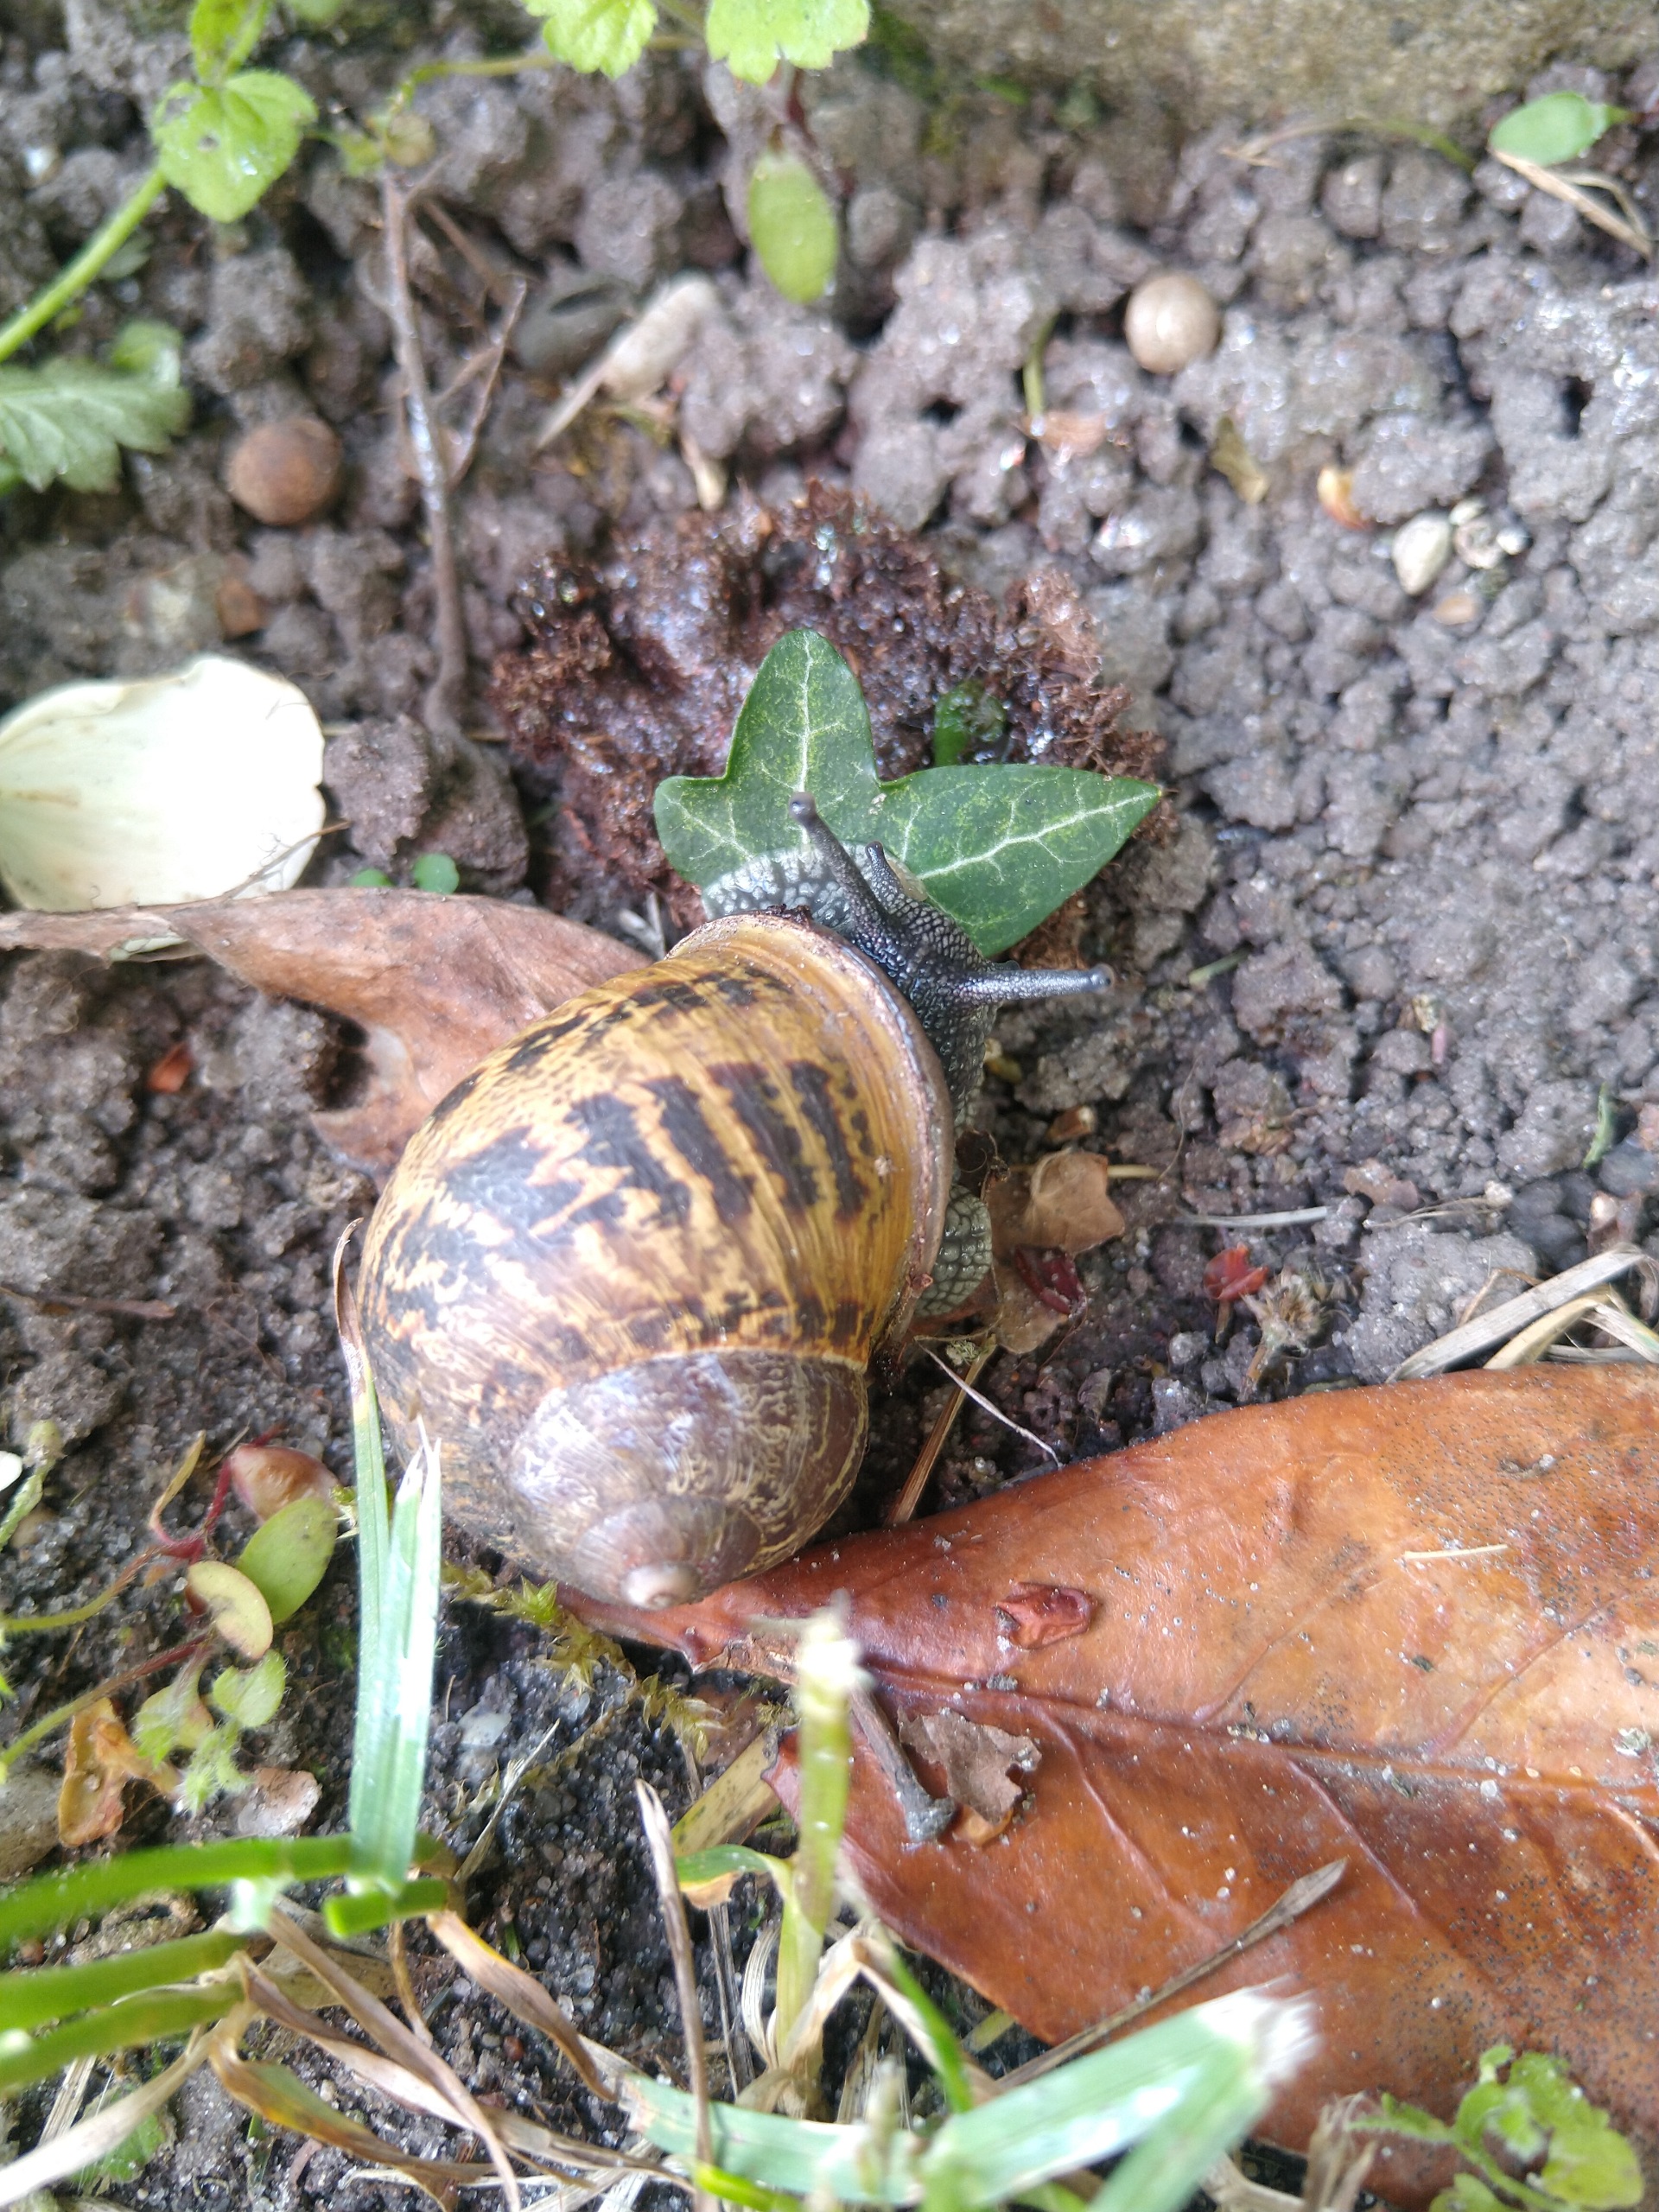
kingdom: Animalia
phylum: Mollusca
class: Gastropoda
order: Stylommatophora
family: Helicidae
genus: Cornu
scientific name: Cornu aspersum
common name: Plettet voldsnegl
